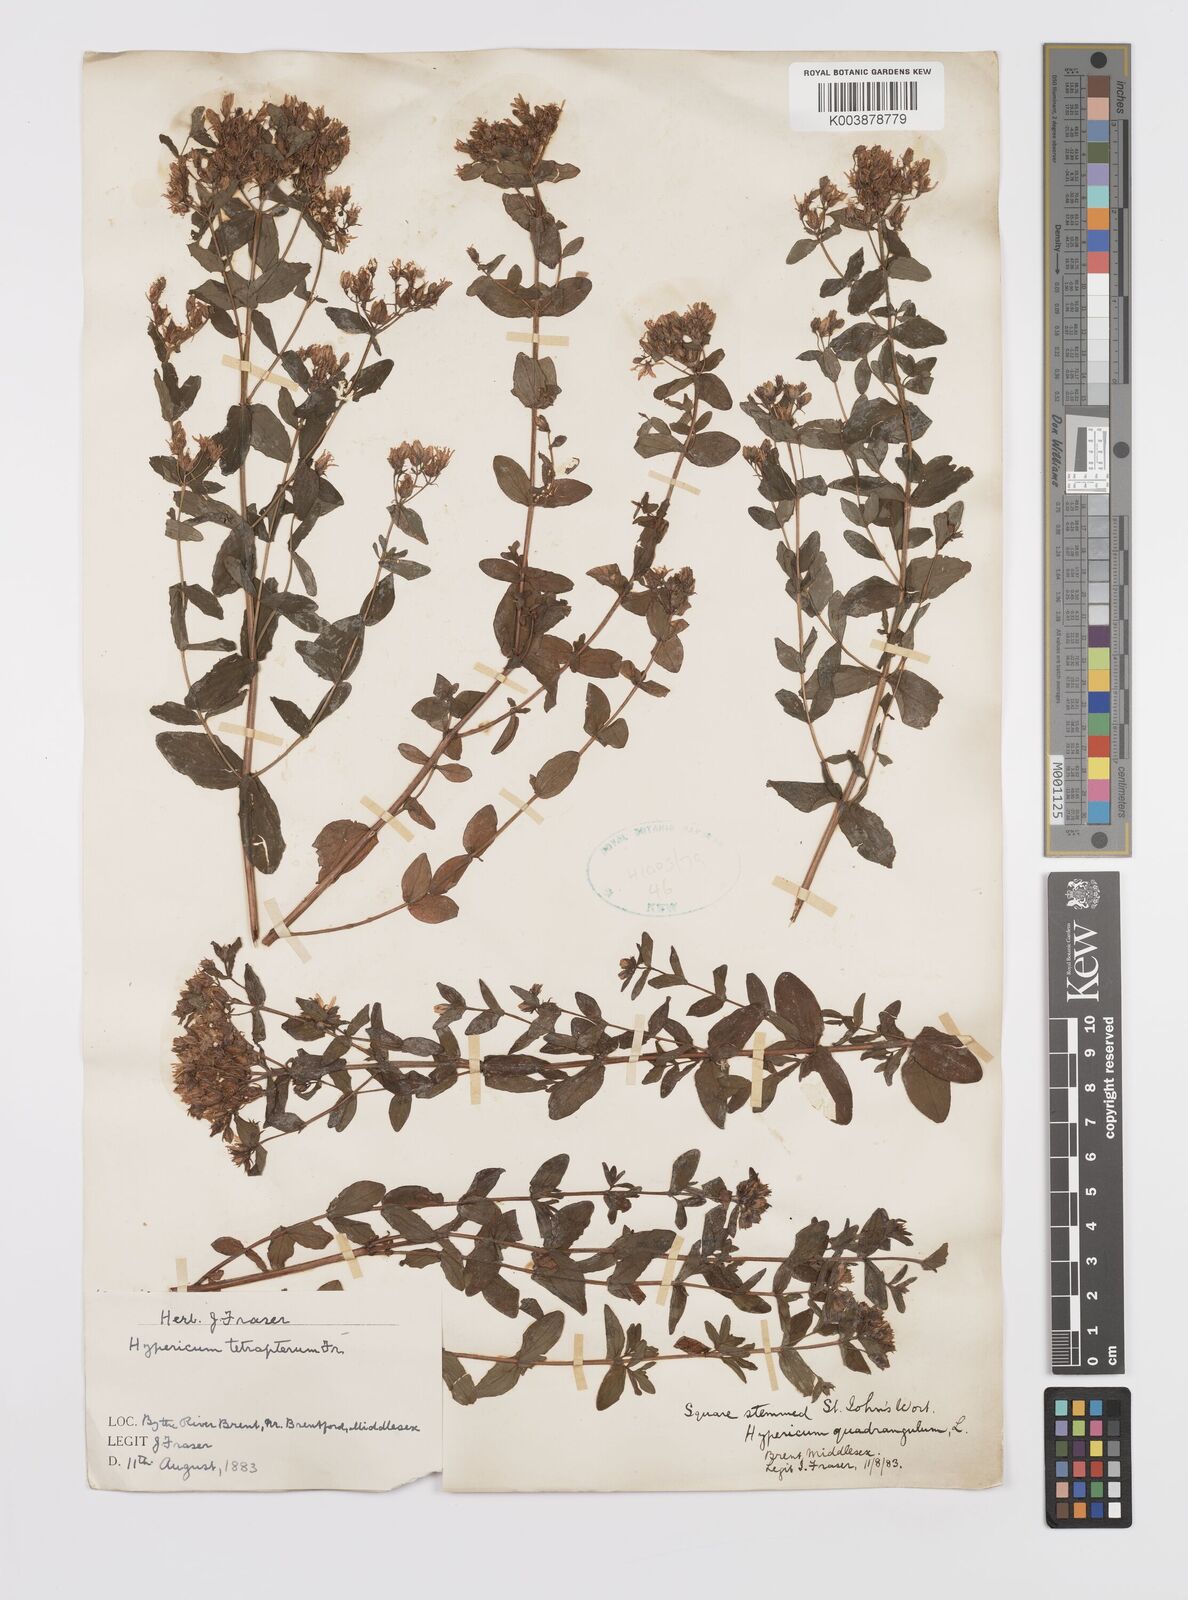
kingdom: Plantae
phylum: Tracheophyta
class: Magnoliopsida
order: Malpighiales
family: Hypericaceae
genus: Hypericum
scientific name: Hypericum tetrapterum
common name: Square-stalked st. john's-wort
